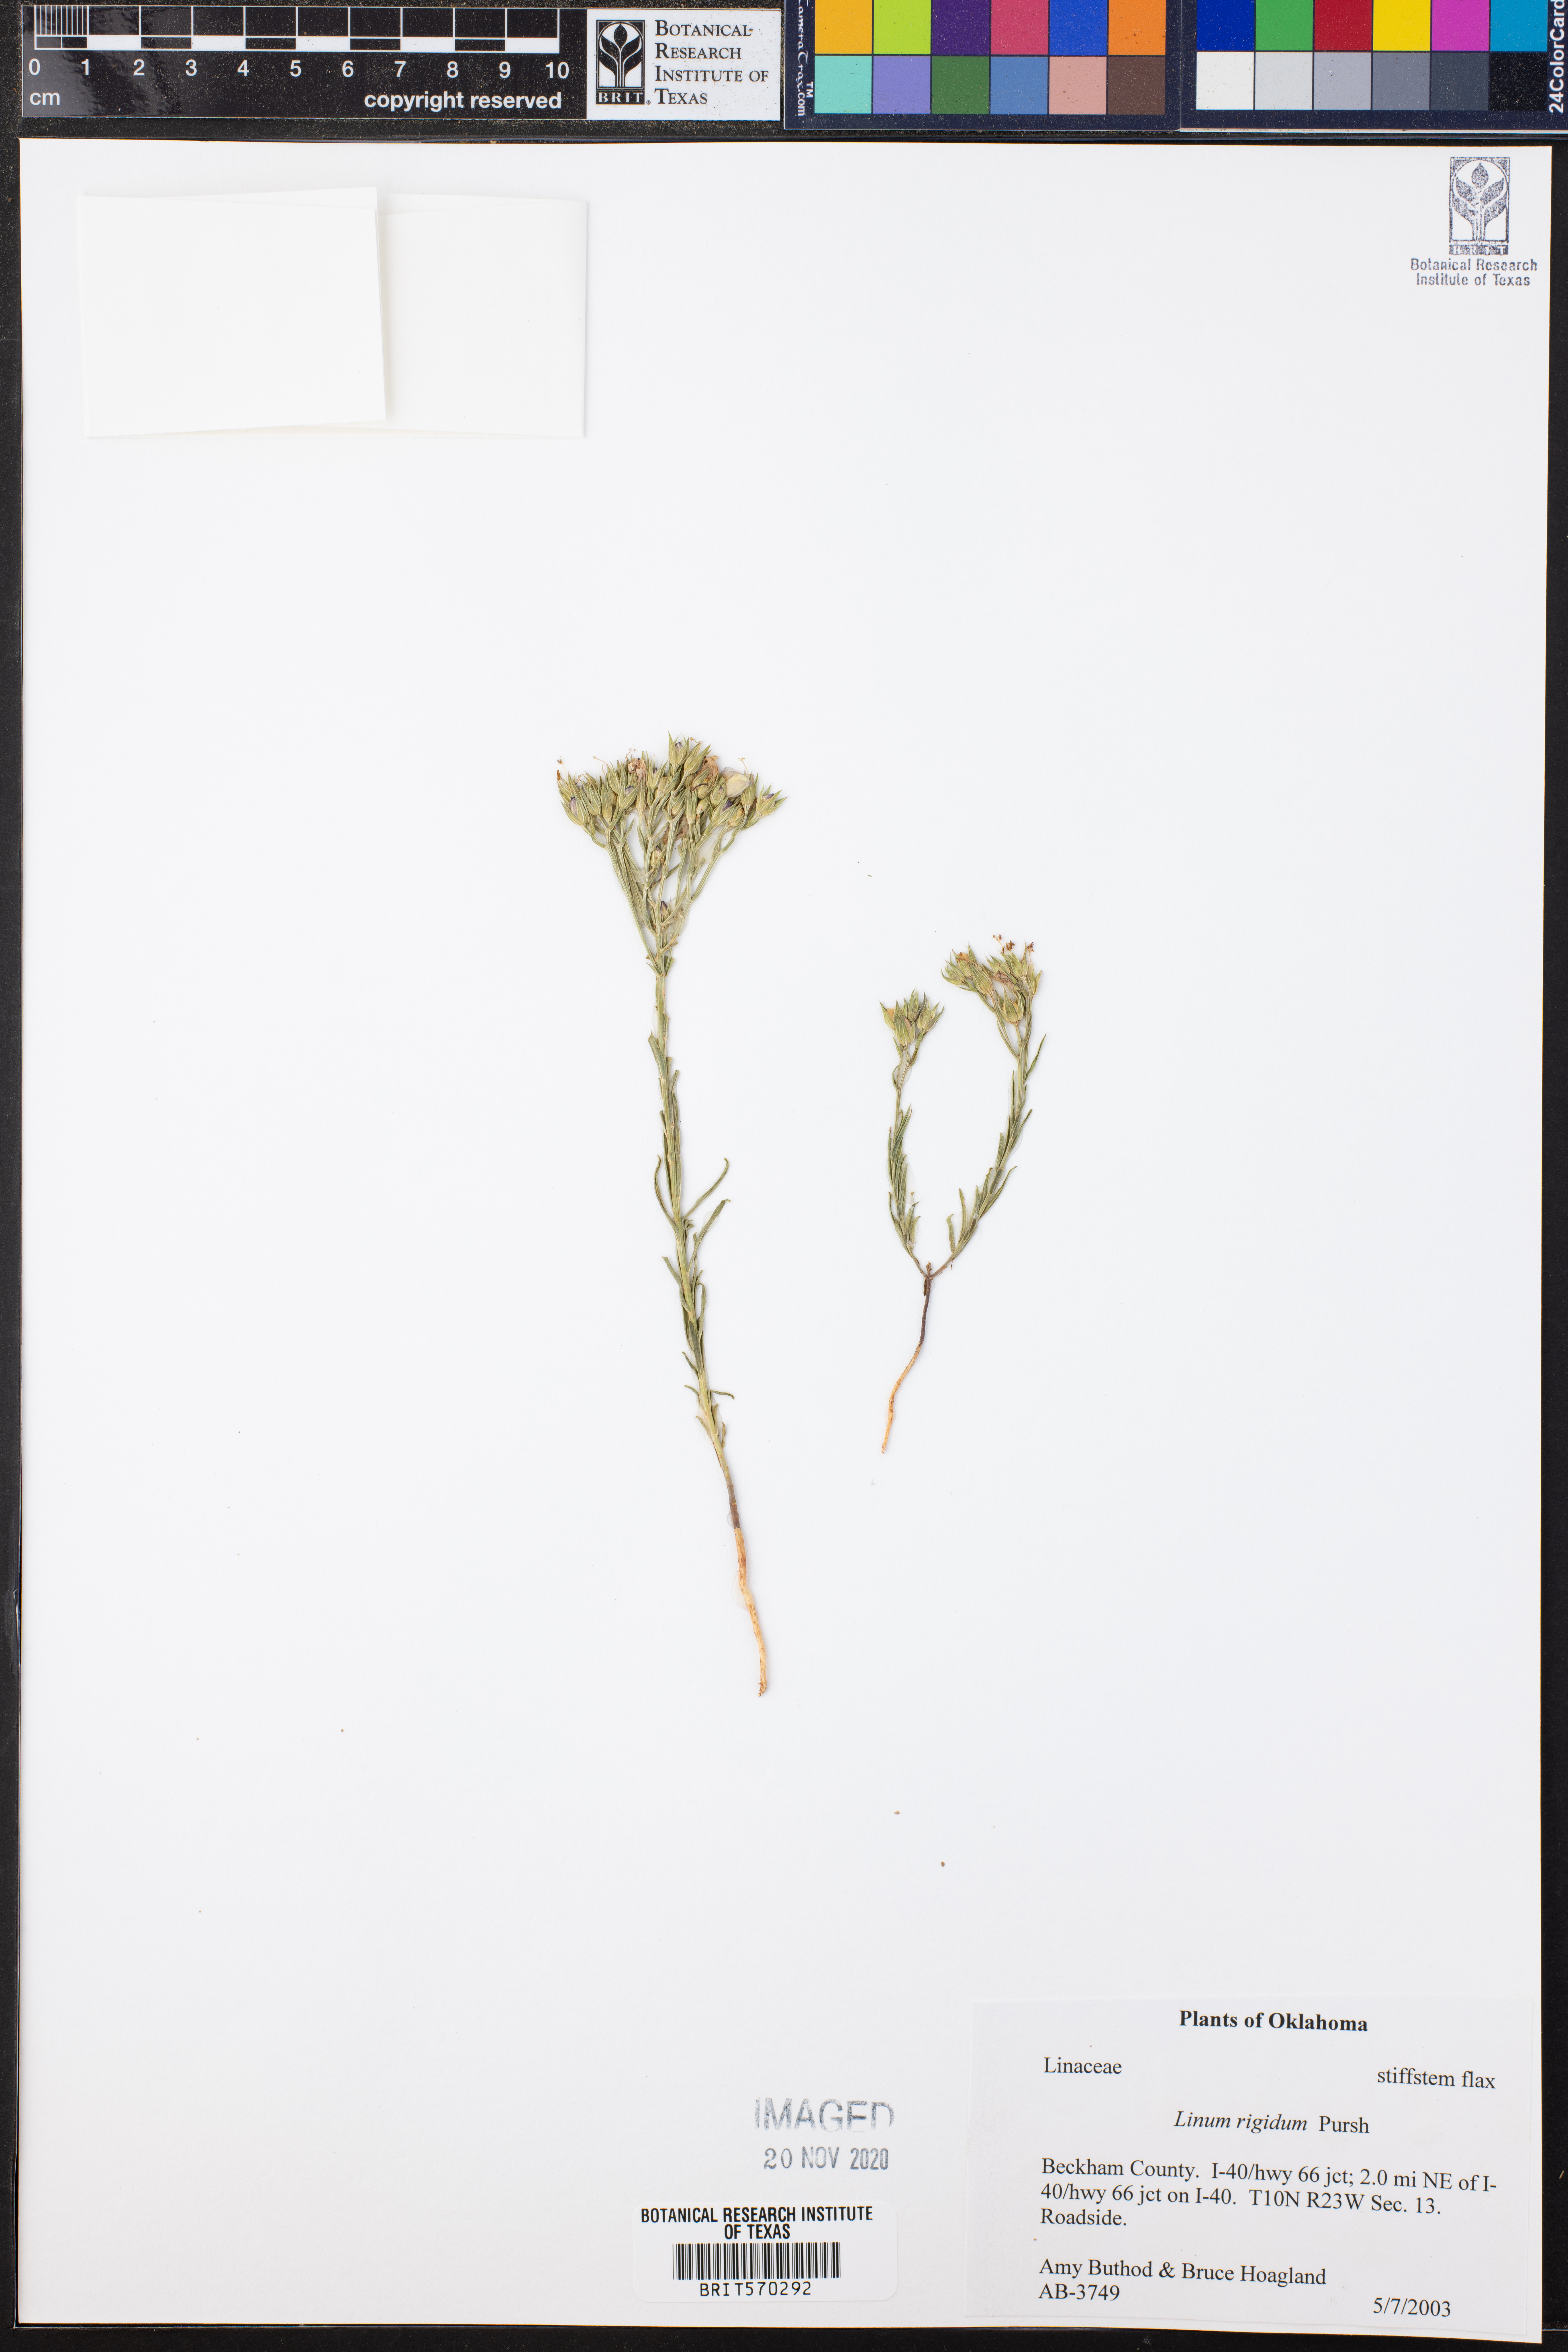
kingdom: Plantae
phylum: Tracheophyta
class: Magnoliopsida
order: Malpighiales
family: Linaceae
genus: Linum
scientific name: Linum rigidum
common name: Stiff-stem flax
